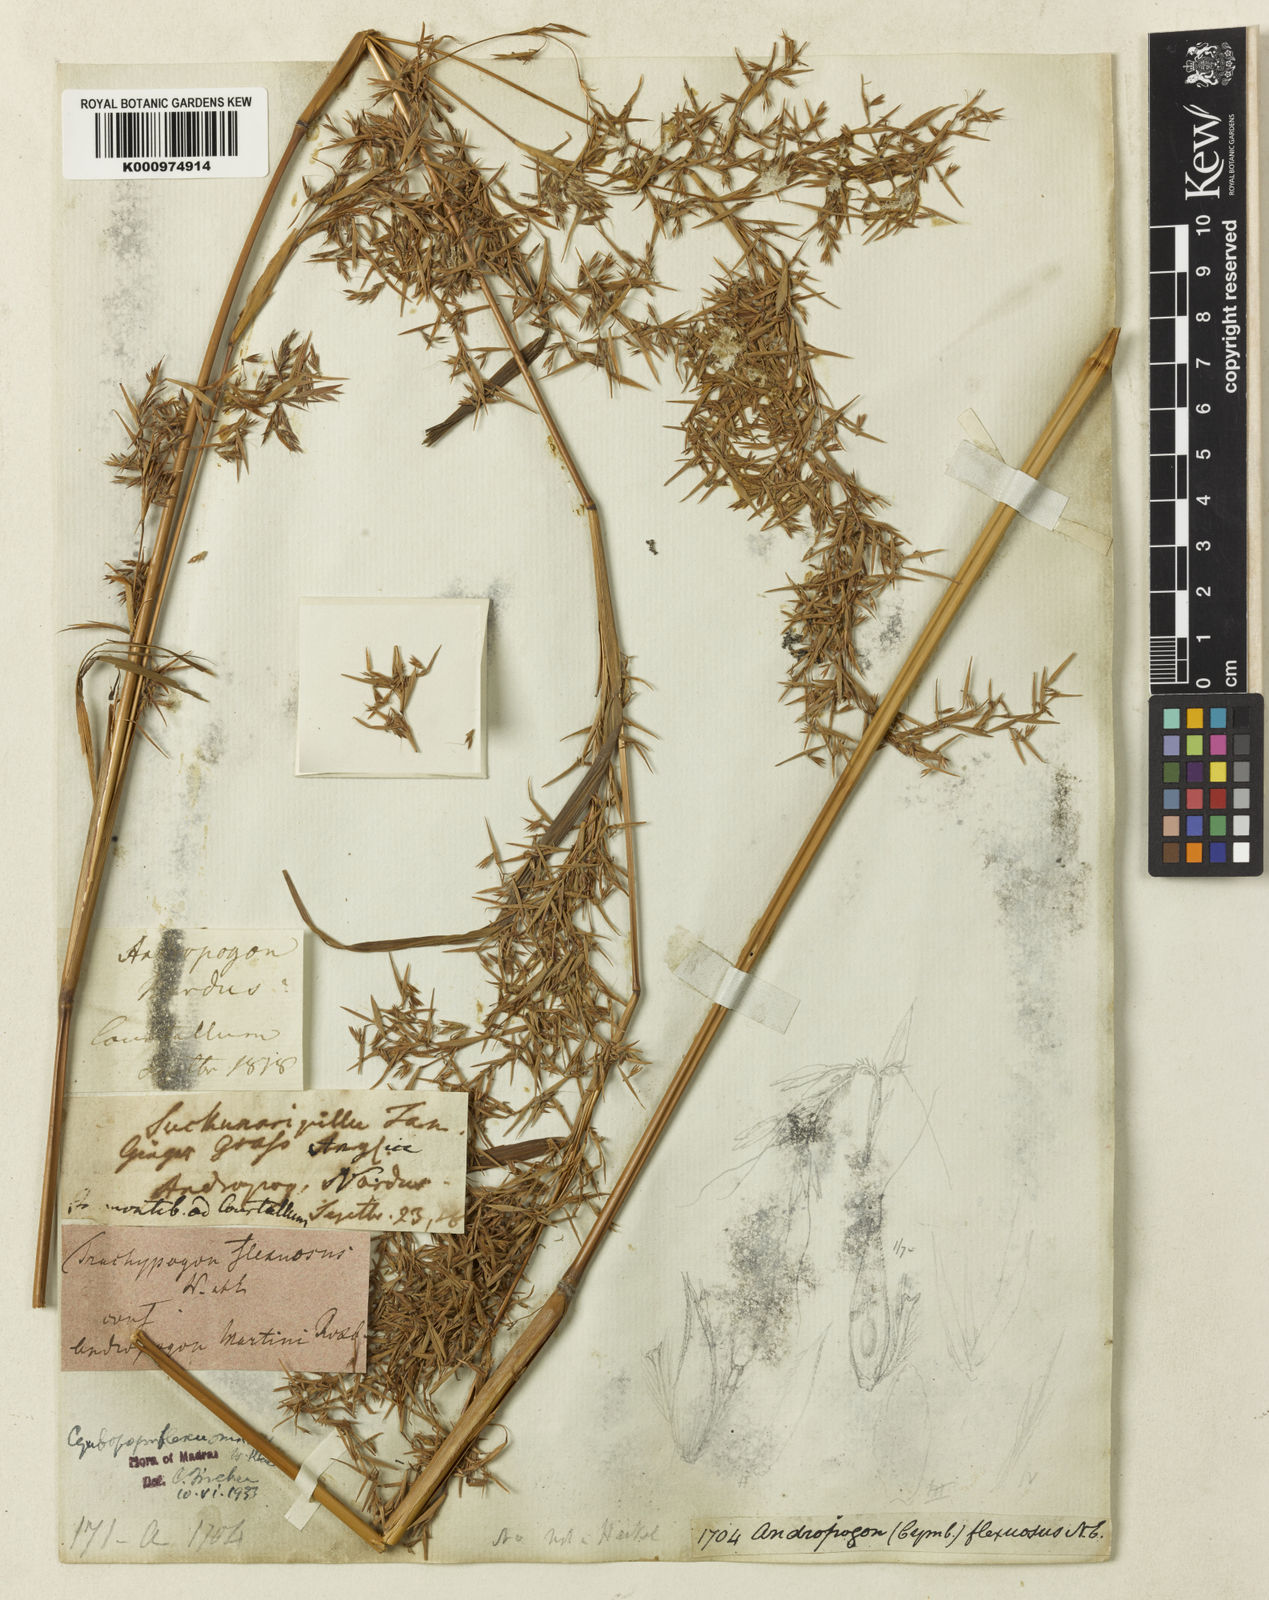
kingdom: Plantae
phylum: Tracheophyta
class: Liliopsida
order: Poales
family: Poaceae
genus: Cymbopogon
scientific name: Cymbopogon flexuosus
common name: East indian lemongrass
